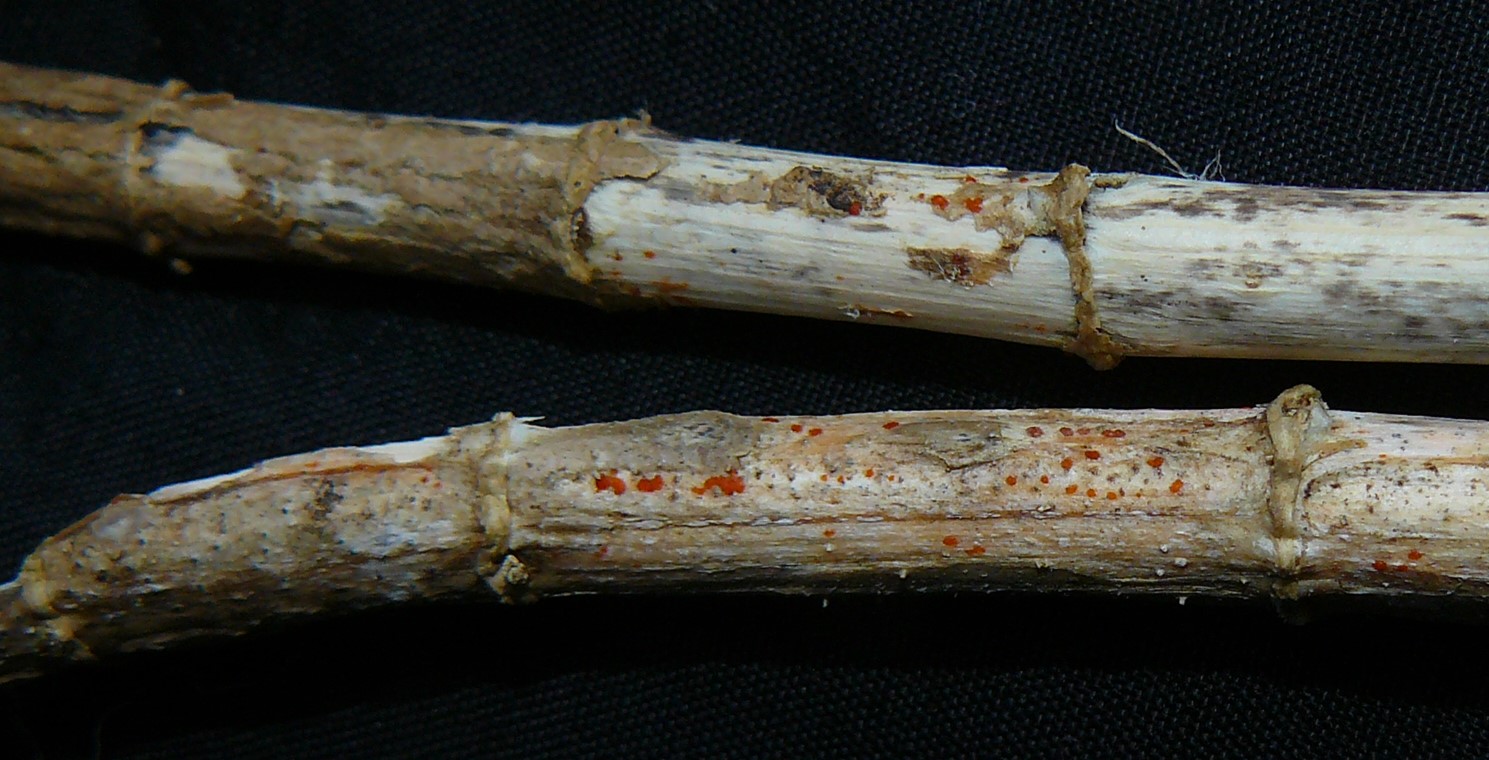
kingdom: Fungi
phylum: Ascomycota
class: Leotiomycetes
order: Helotiales
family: Calloriaceae
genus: Calloria
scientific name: Calloria urticae
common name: nælde-orangeskive
